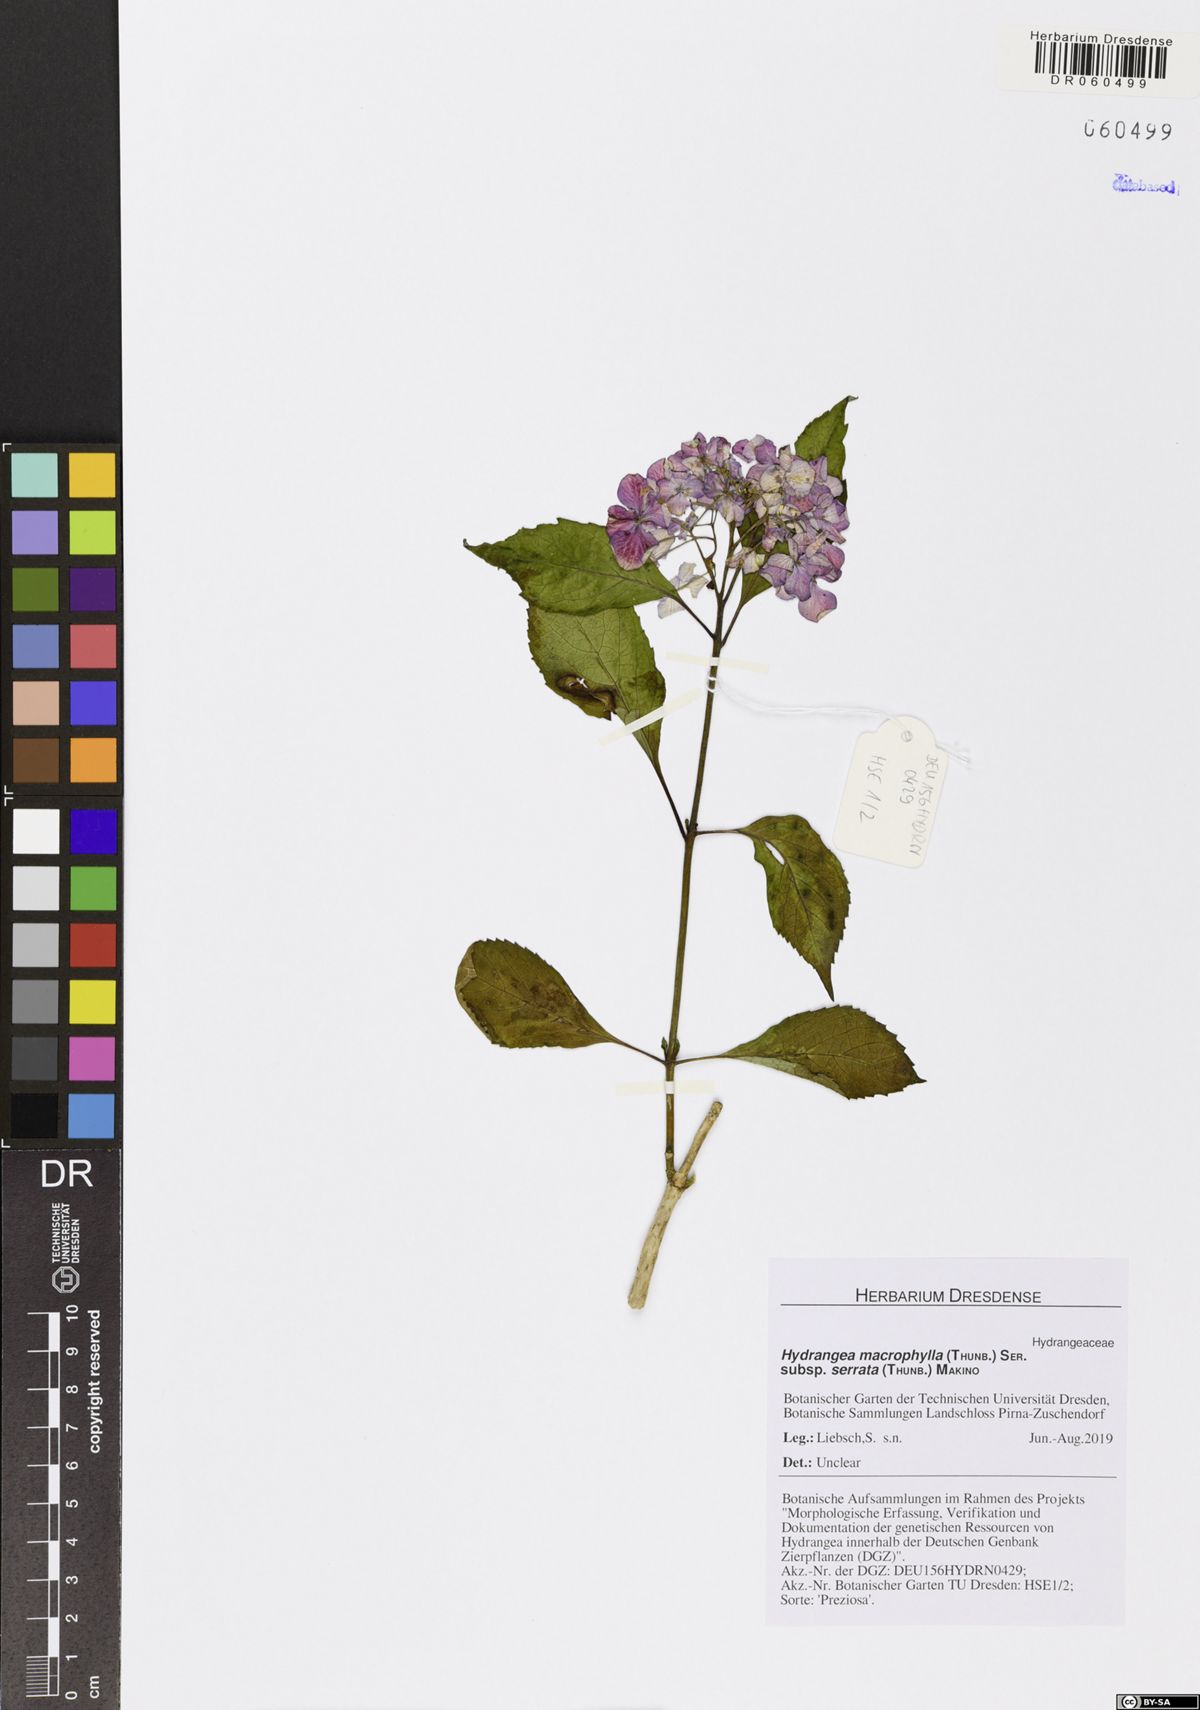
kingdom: Plantae
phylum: Tracheophyta
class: Magnoliopsida
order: Cornales
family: Hydrangeaceae
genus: Hydrangea
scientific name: Hydrangea serrata
